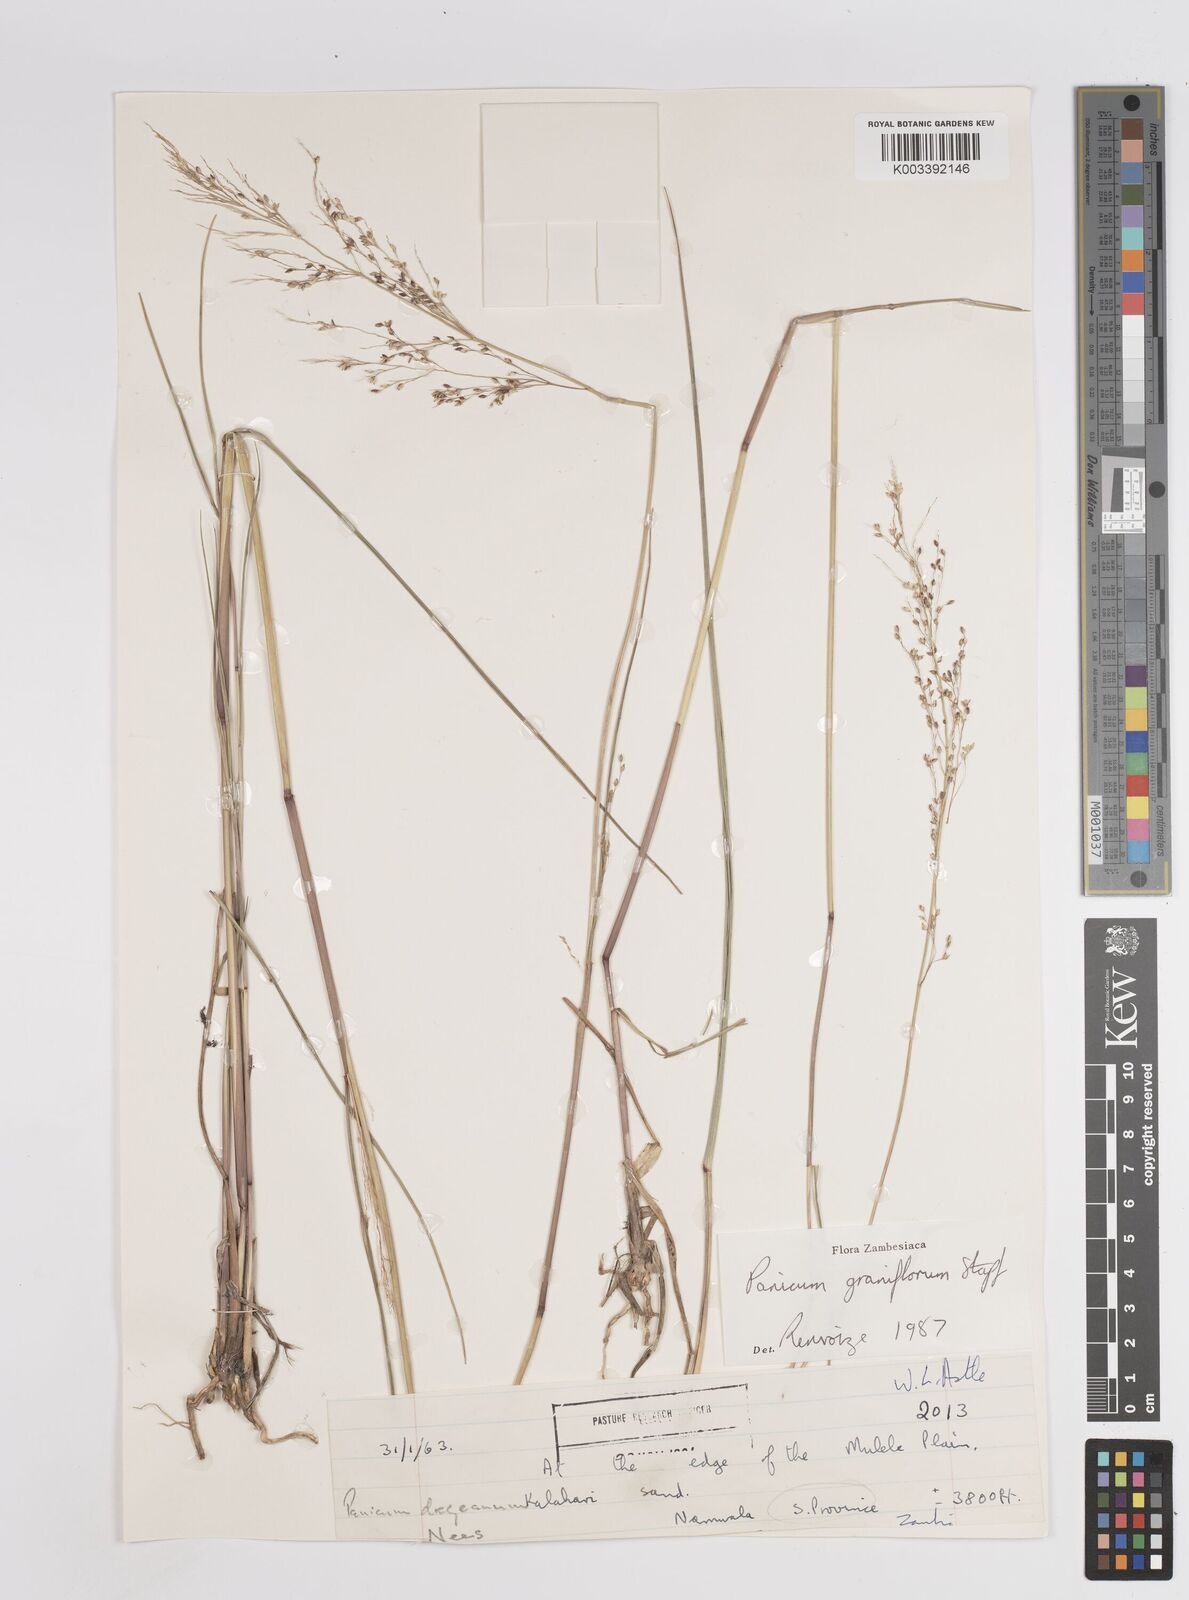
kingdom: Plantae
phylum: Tracheophyta
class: Liliopsida
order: Poales
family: Poaceae
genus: Panicum
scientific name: Panicum graniflorum
